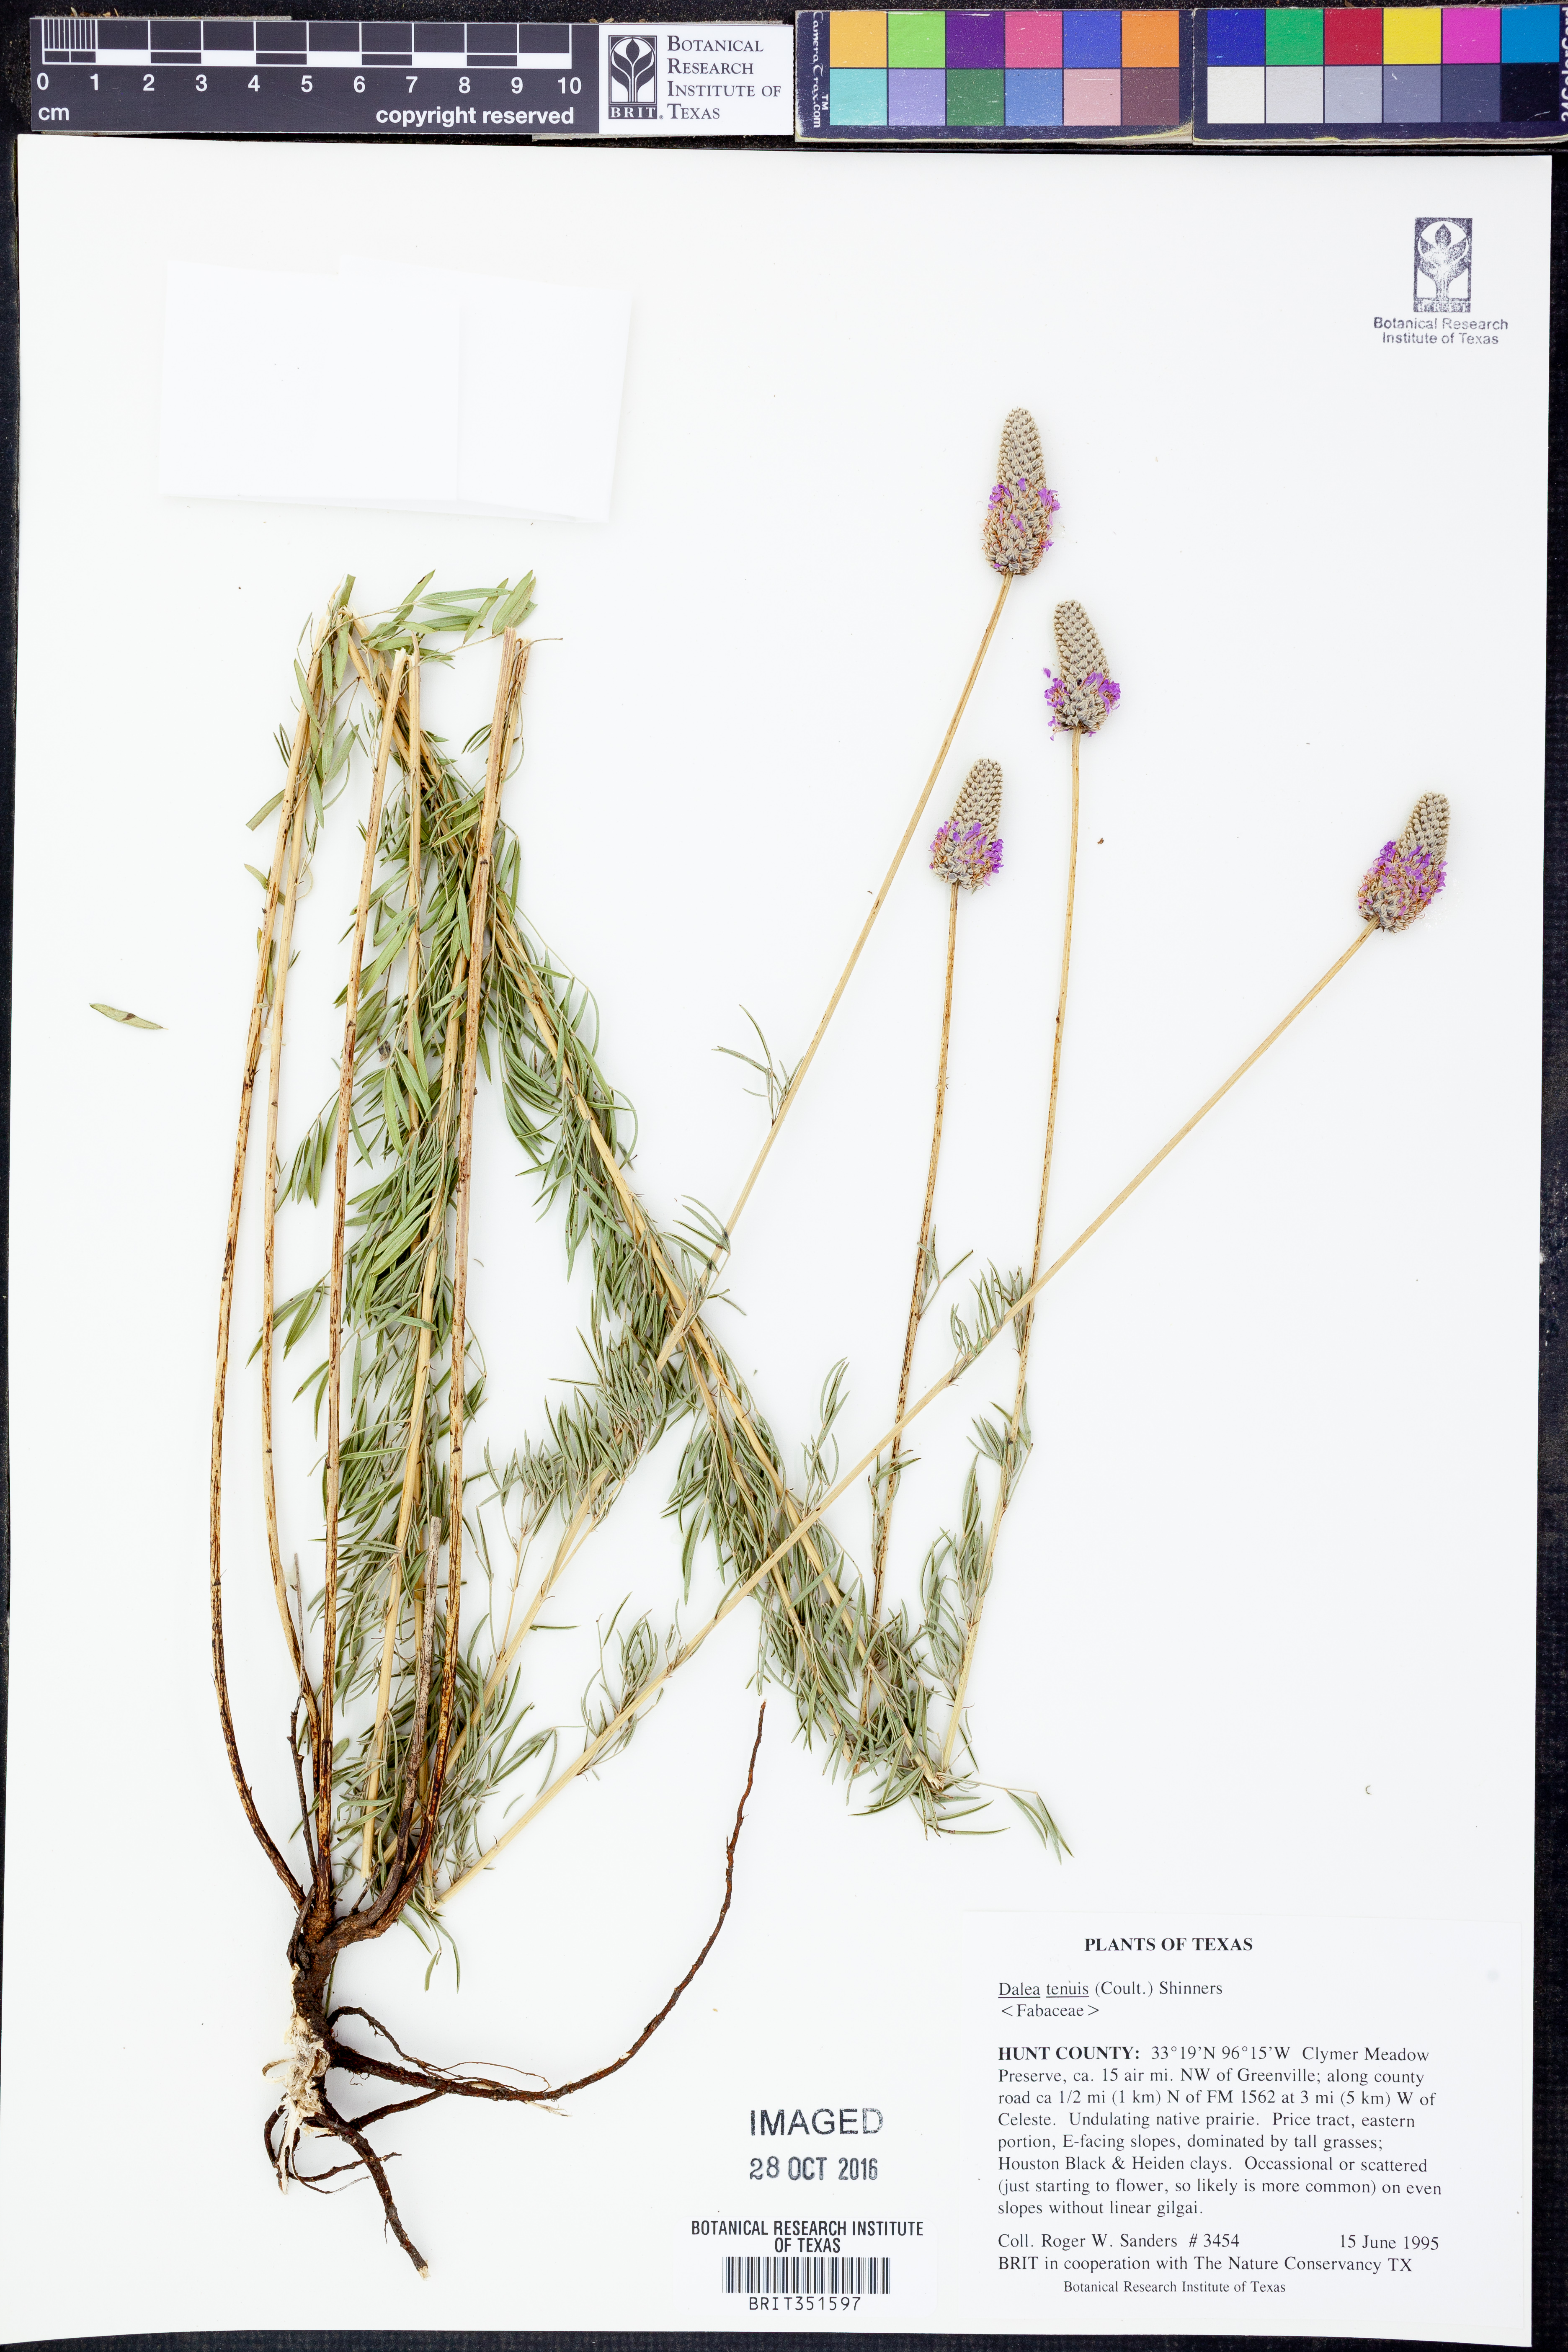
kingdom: Plantae
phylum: Tracheophyta
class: Magnoliopsida
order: Fabales
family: Fabaceae
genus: Dalea
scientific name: Dalea tenuis
